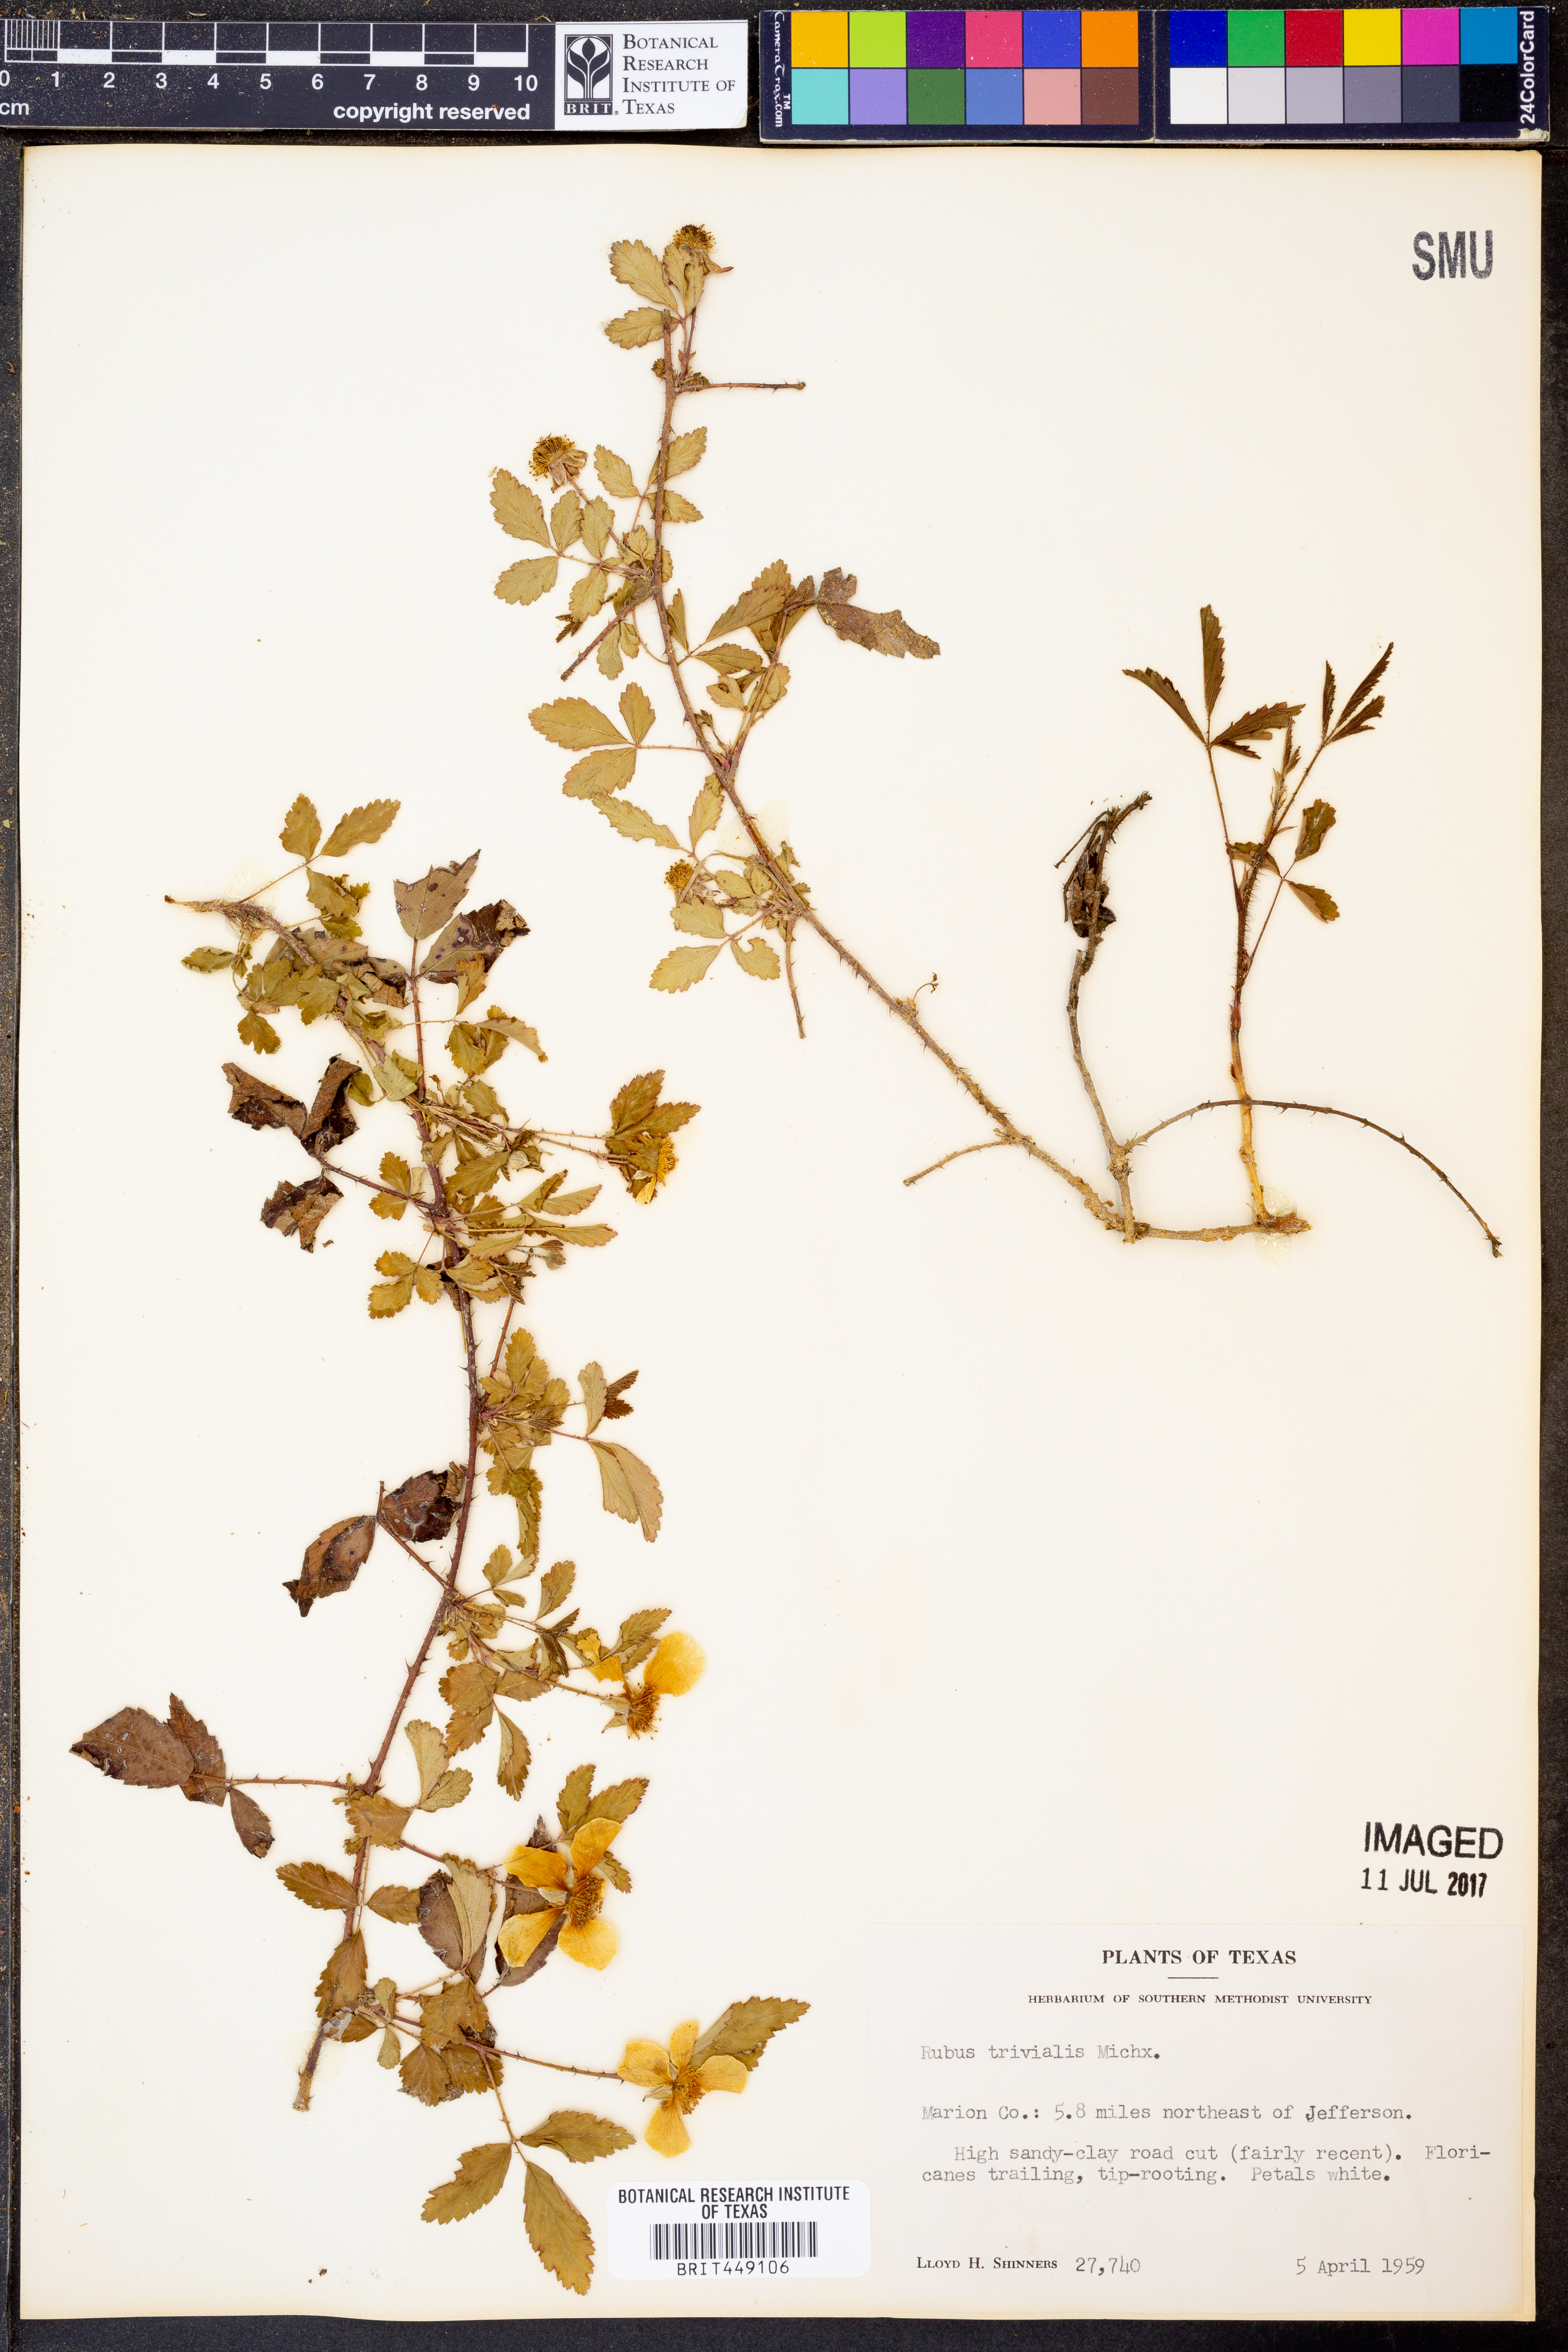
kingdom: Plantae
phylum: Tracheophyta
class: Magnoliopsida
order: Rosales
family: Rosaceae
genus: Rubus
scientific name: Rubus trivialis
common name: Southern dewberry
